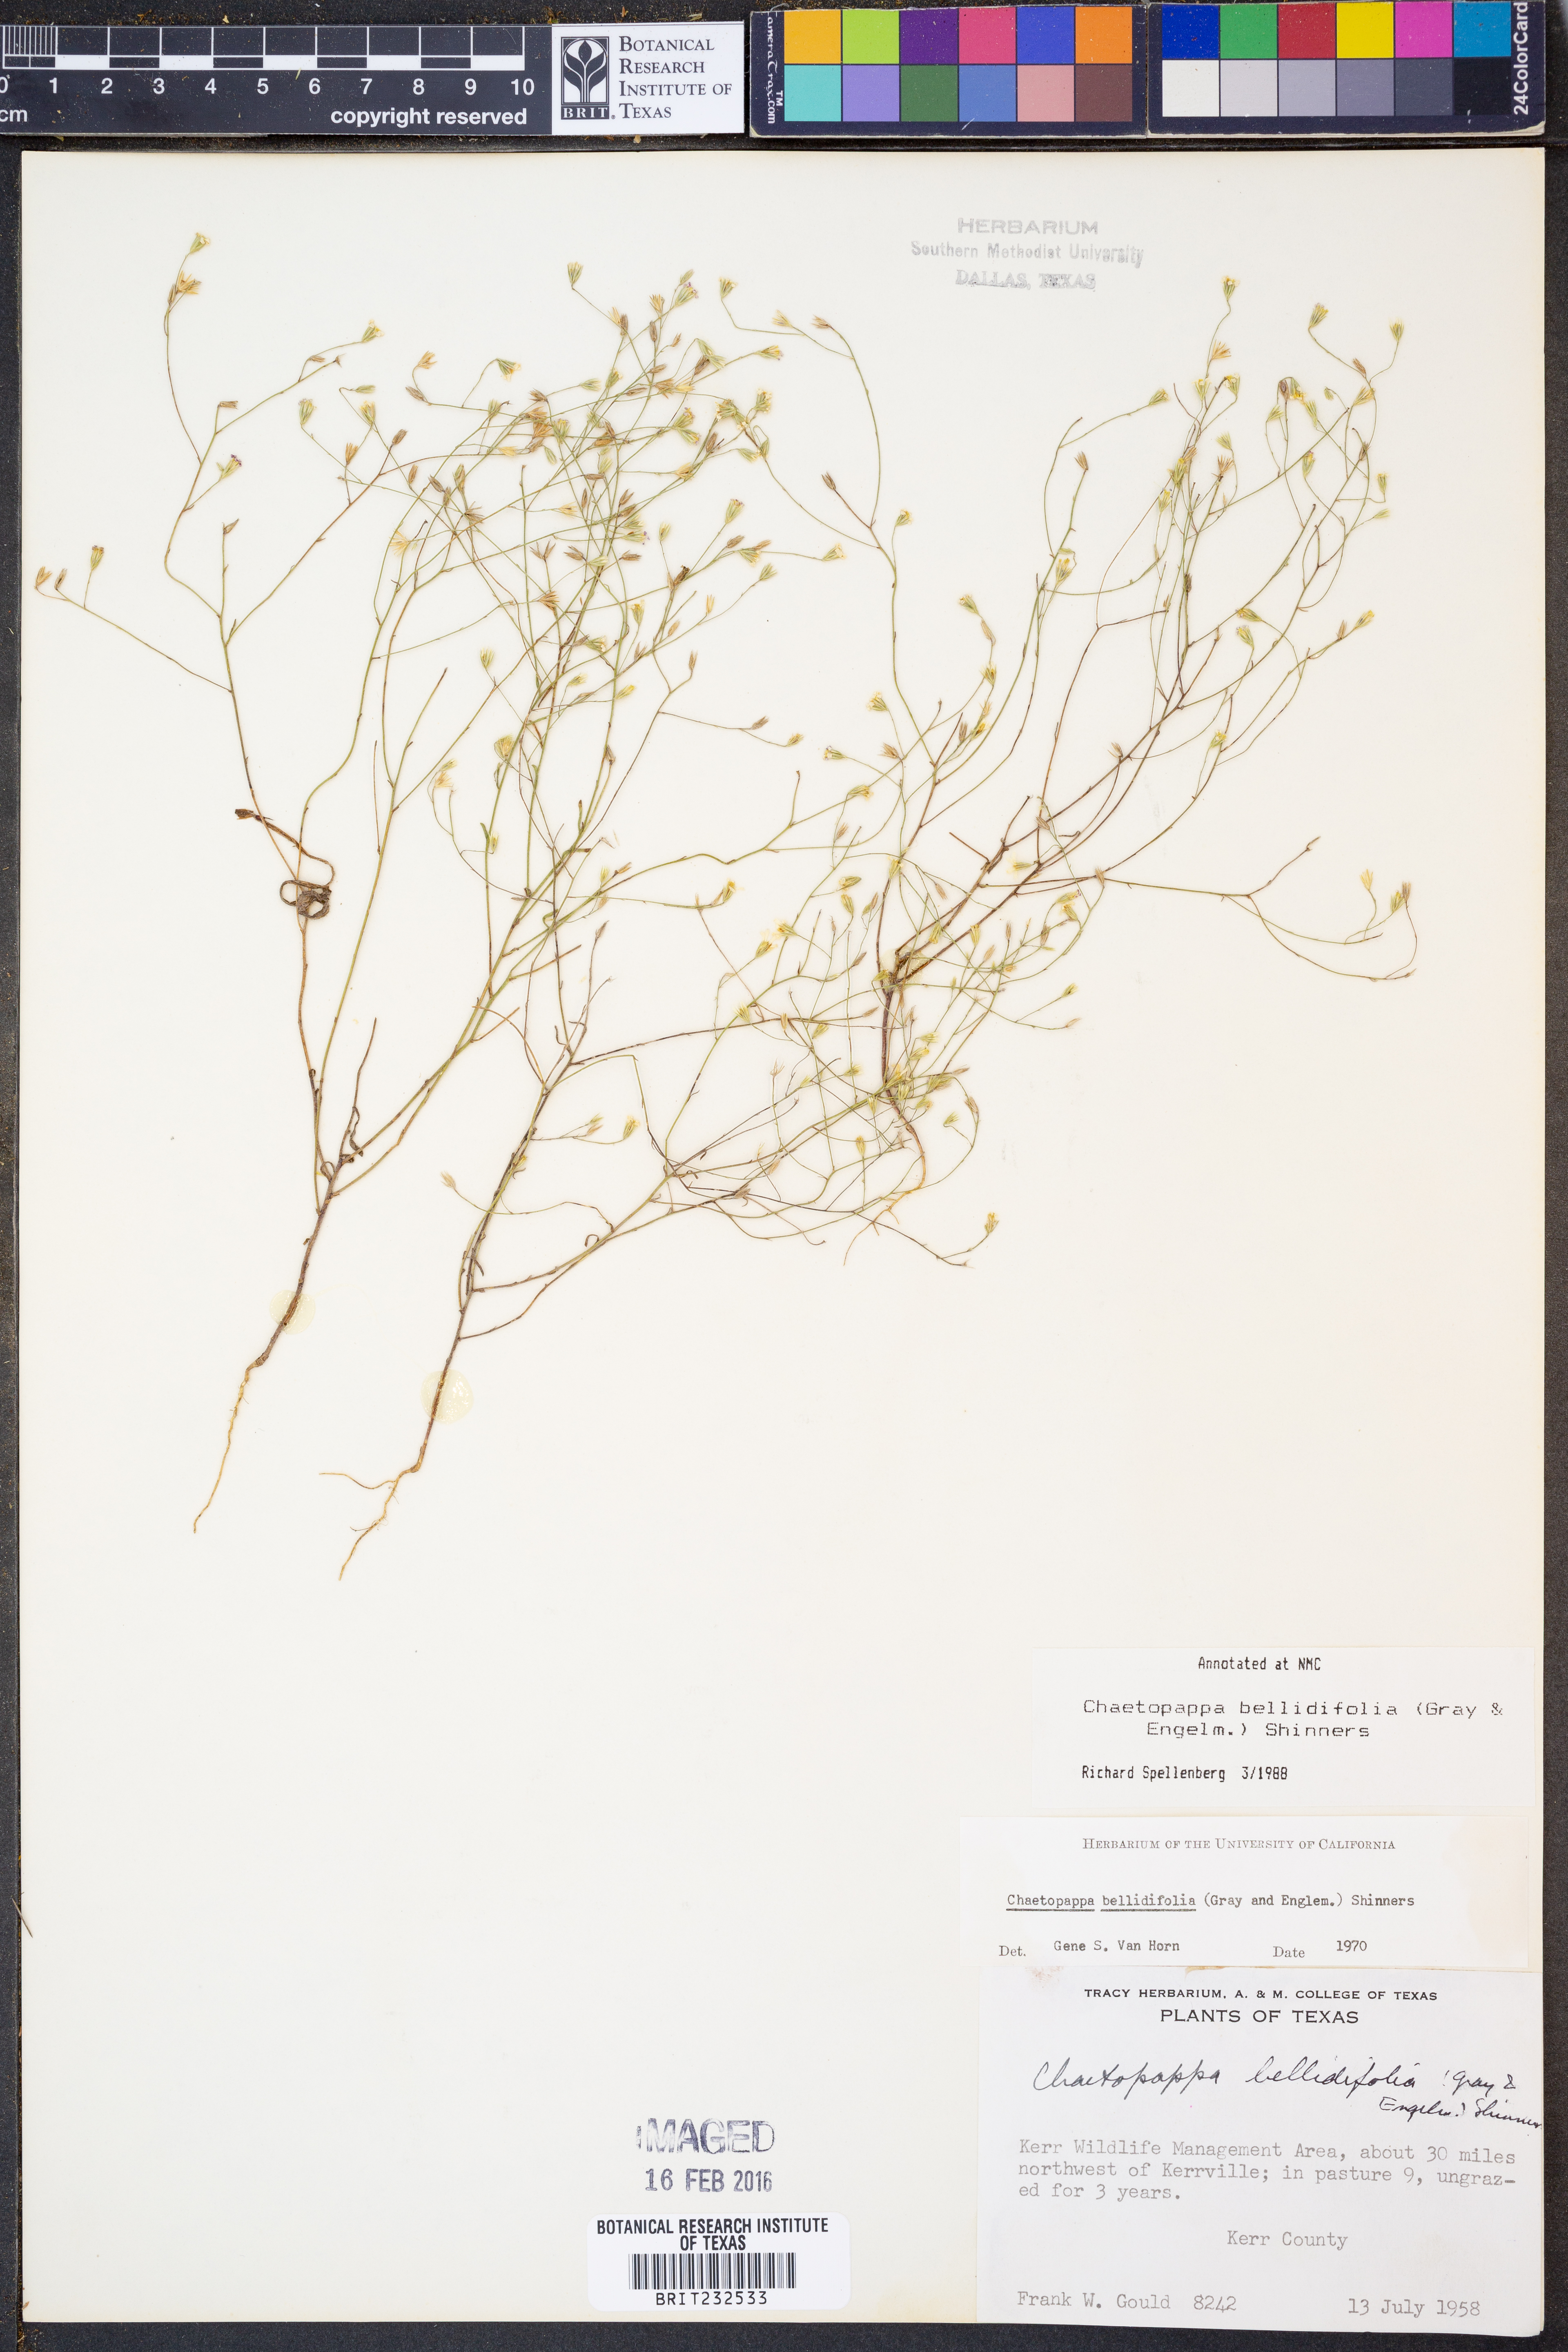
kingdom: Plantae
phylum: Tracheophyta
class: Magnoliopsida
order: Asterales
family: Asteraceae
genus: Chaetopappa
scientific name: Chaetopappa bellidifolia
